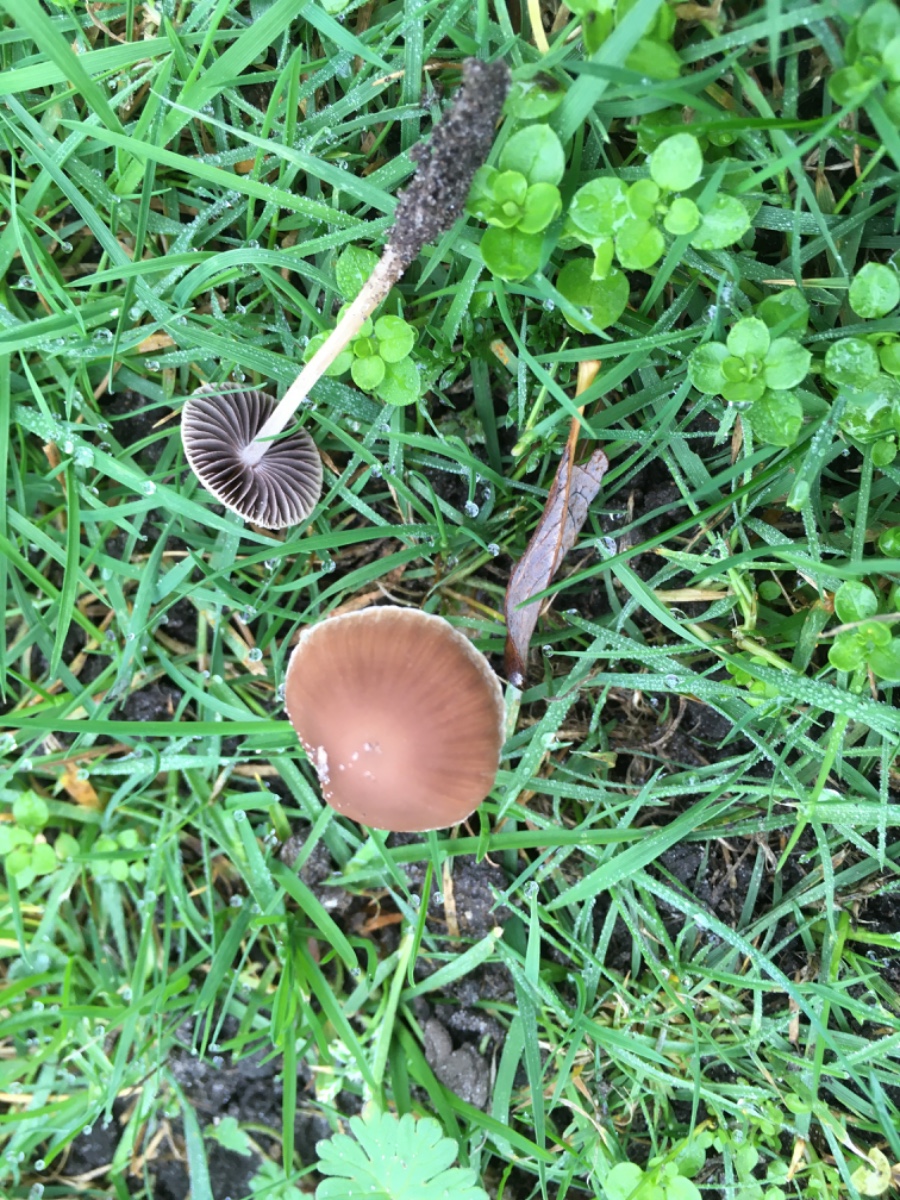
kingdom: Fungi
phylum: Basidiomycota
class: Agaricomycetes
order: Agaricales
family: Psathyrellaceae
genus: Psathyrella
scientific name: Psathyrella
